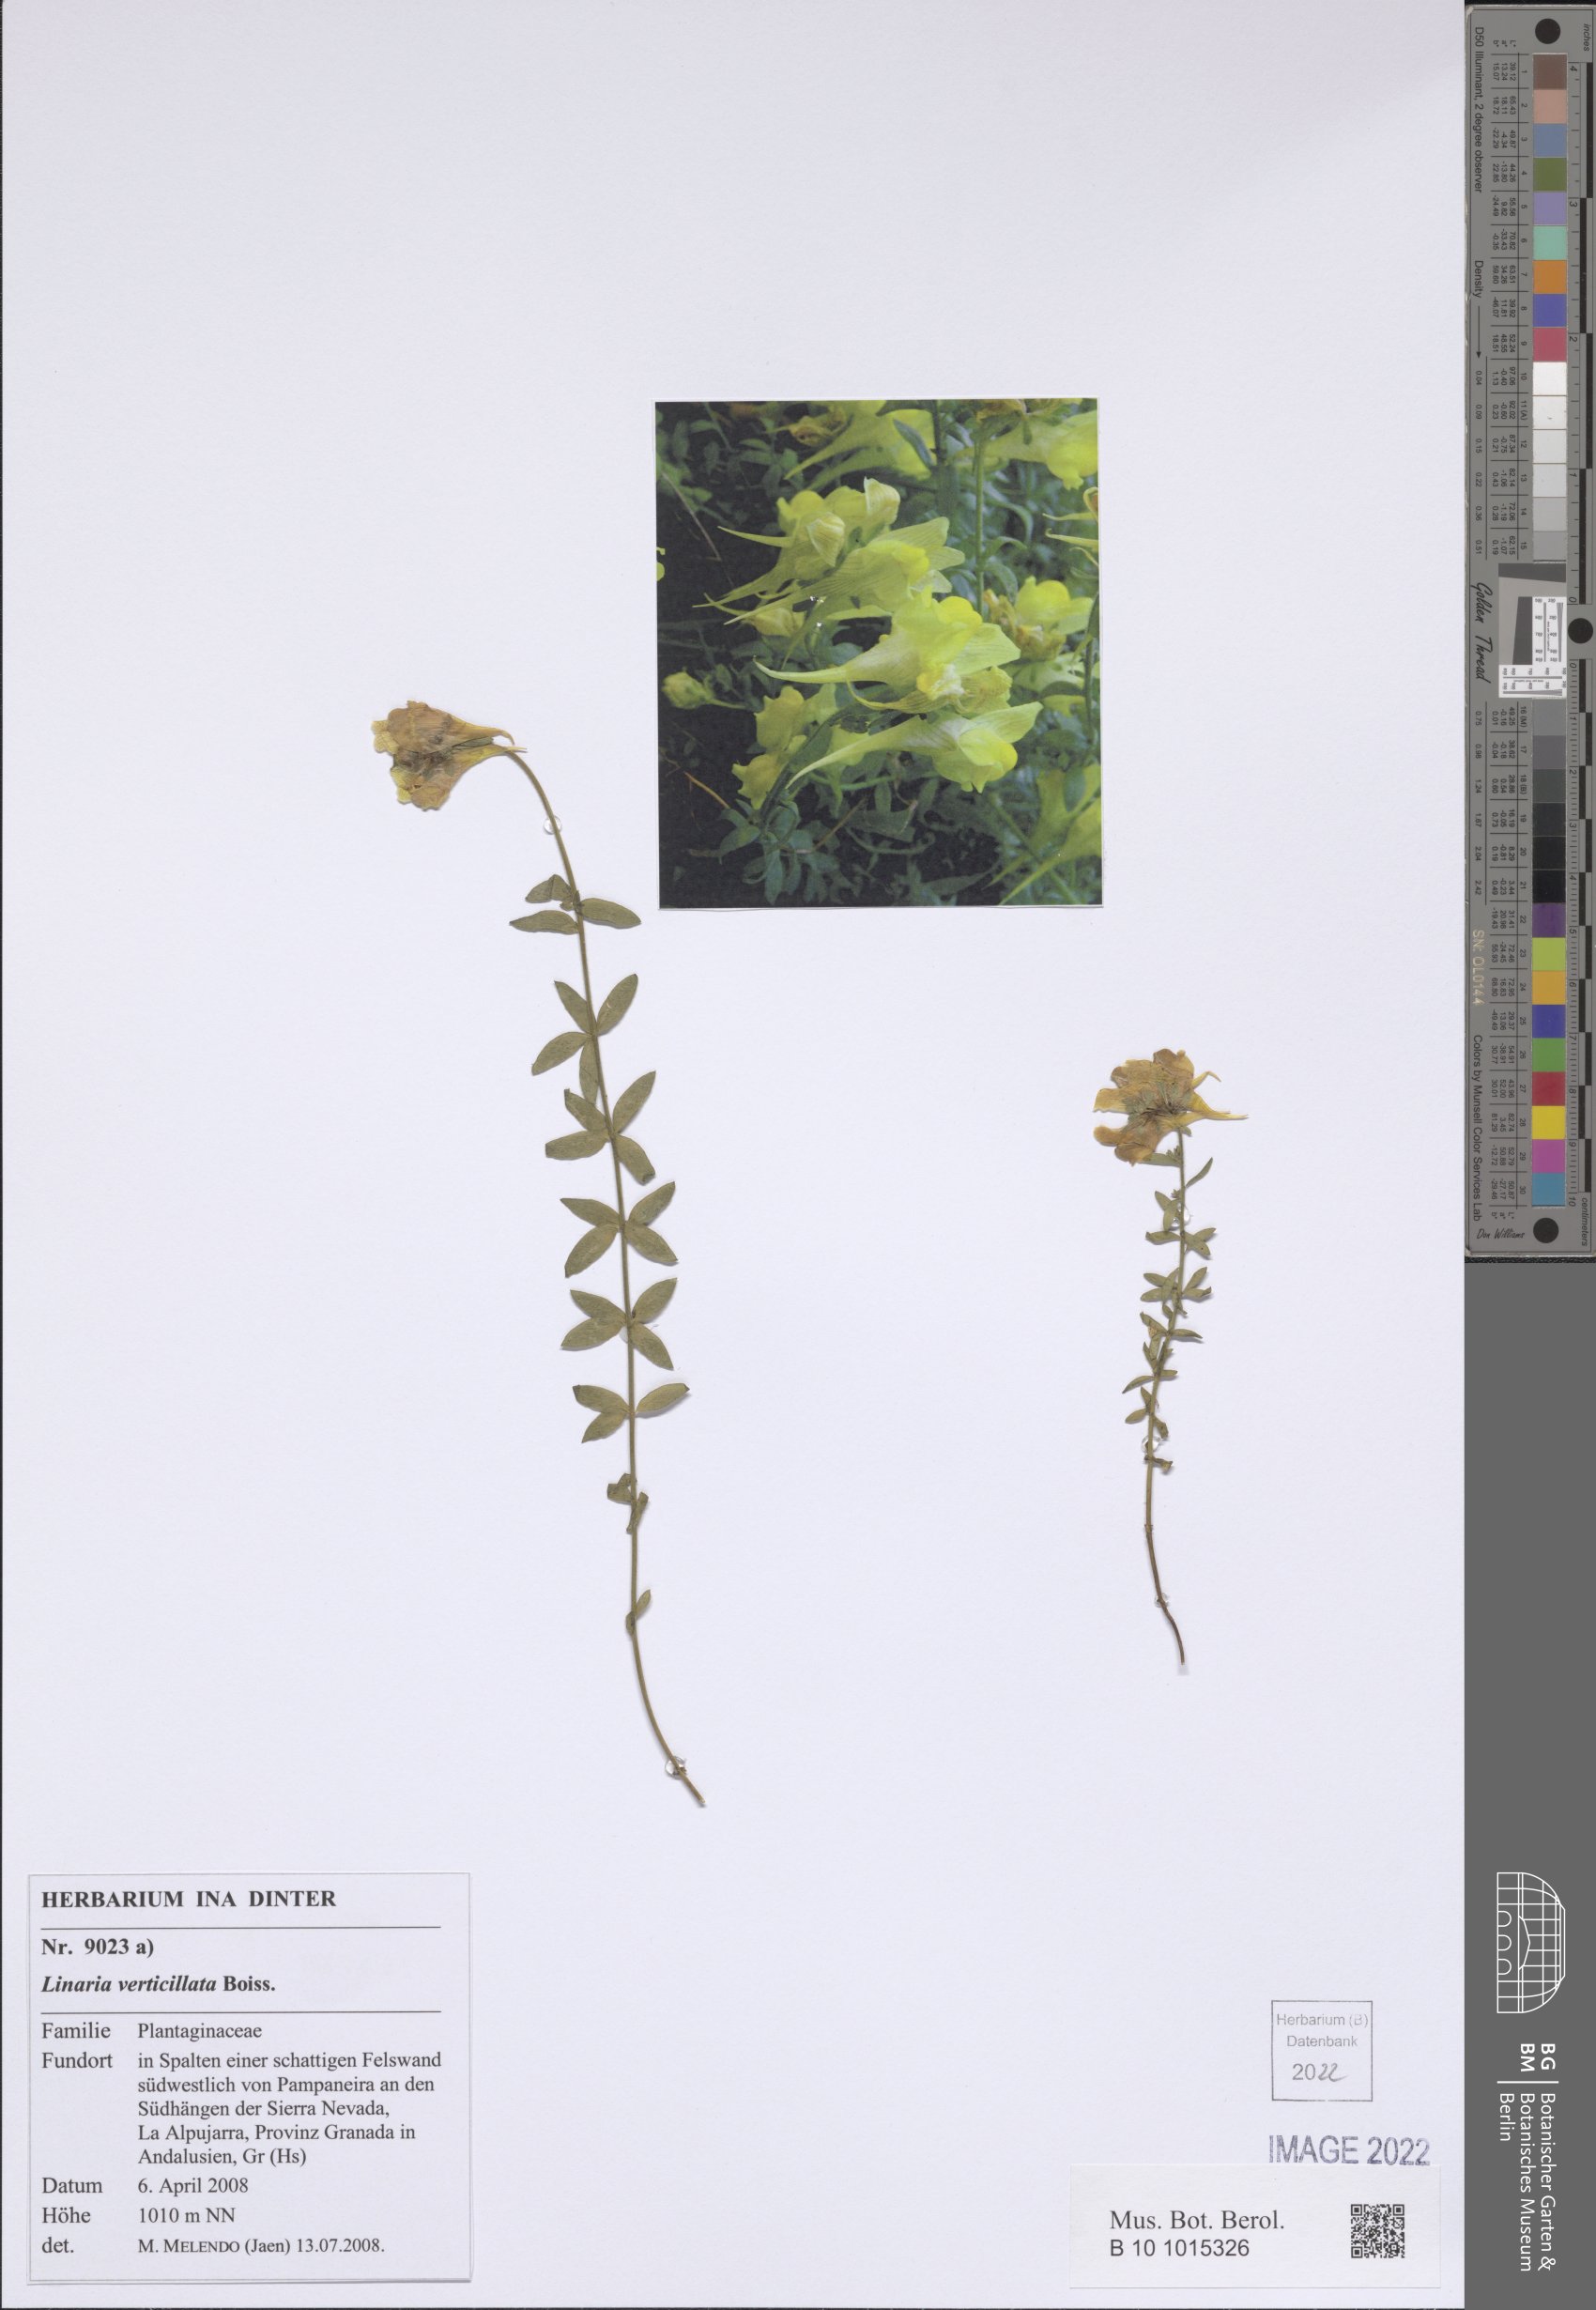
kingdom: Plantae
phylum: Tracheophyta
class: Magnoliopsida
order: Lamiales
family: Plantaginaceae
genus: Linaria
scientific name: Linaria verticillata
